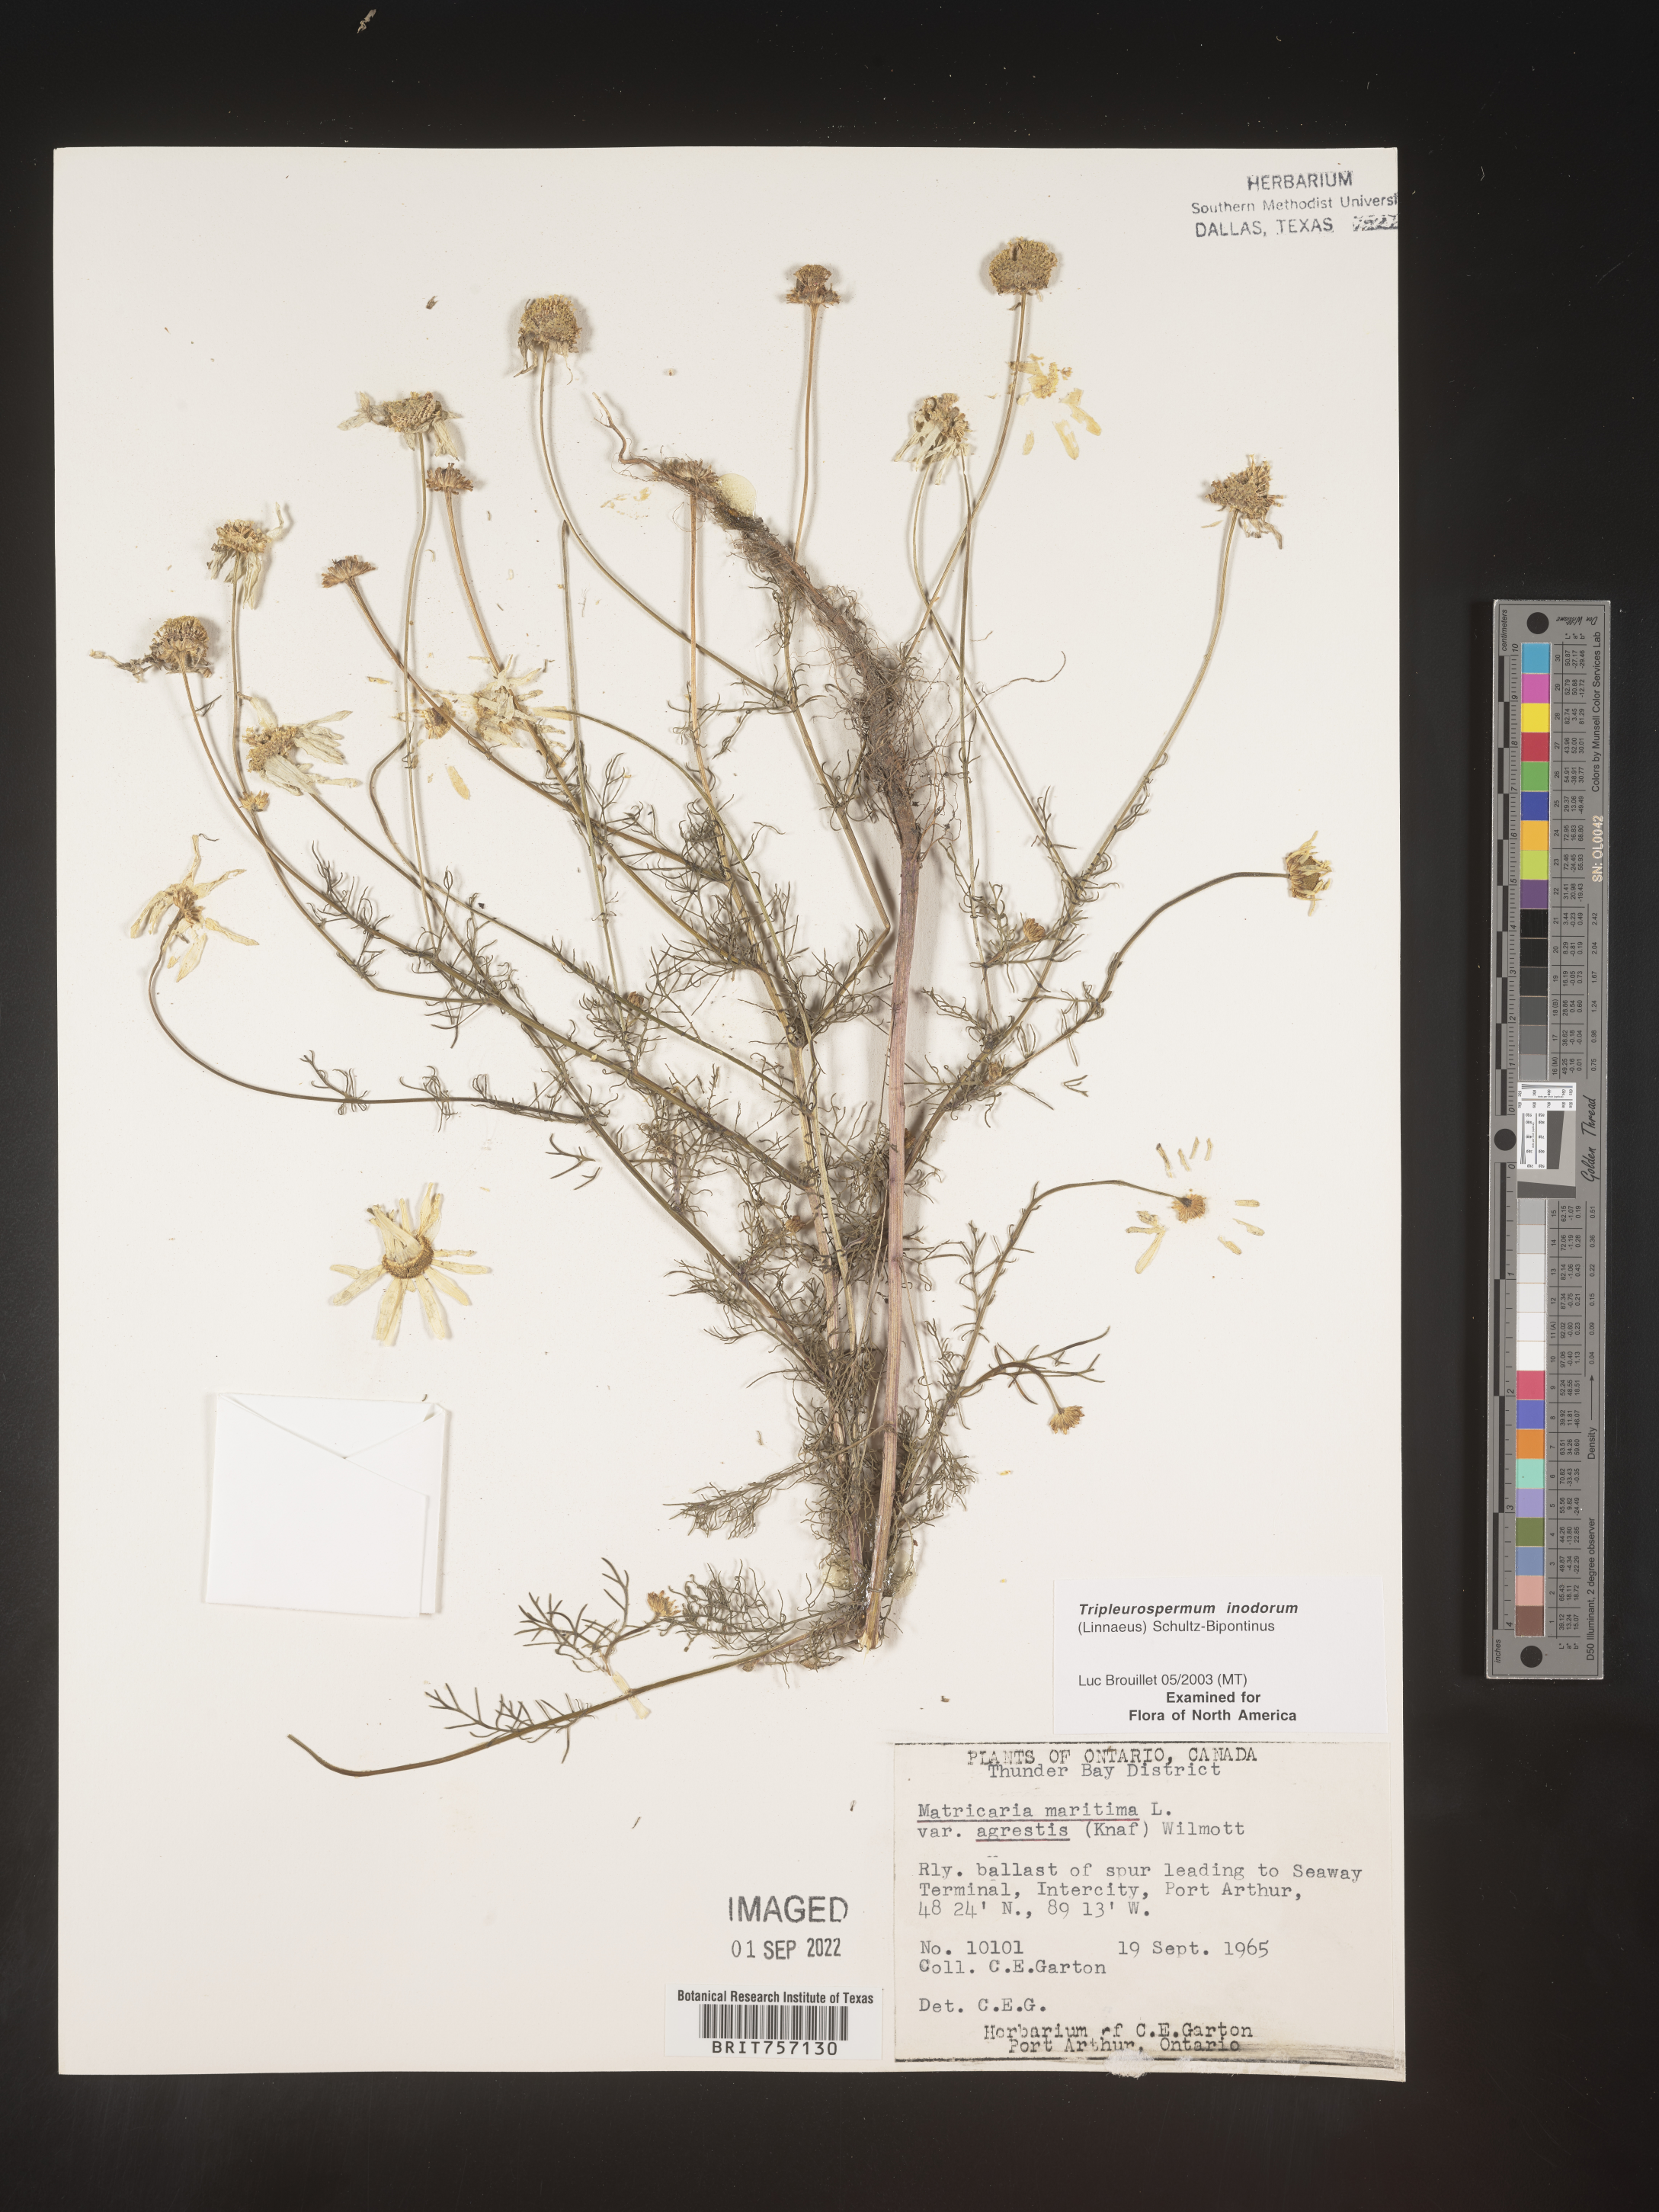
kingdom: Plantae
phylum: Tracheophyta
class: Magnoliopsida
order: Asterales
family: Asteraceae
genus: Tripleurospermum
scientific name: Tripleurospermum inodorum
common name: Scentless mayweed
